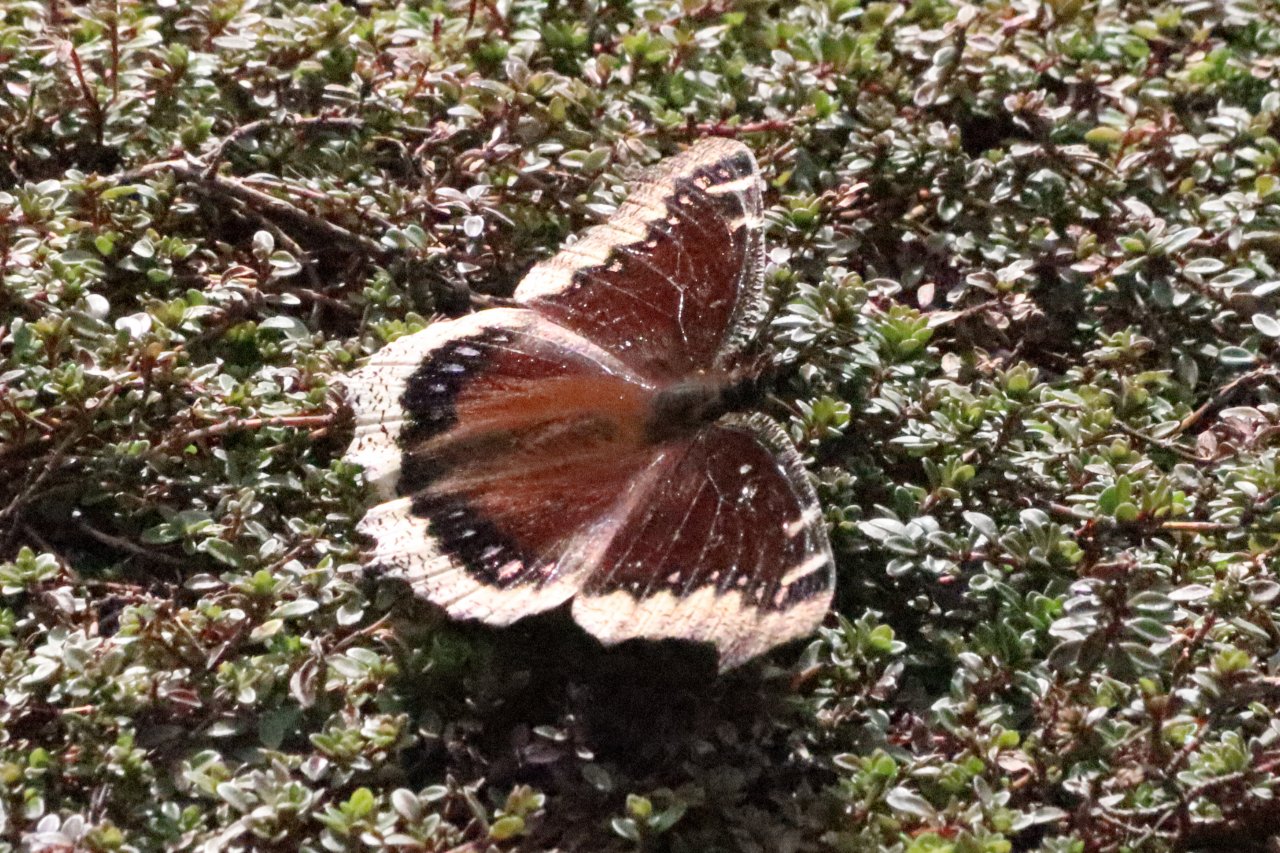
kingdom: Animalia
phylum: Arthropoda
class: Insecta
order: Lepidoptera
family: Nymphalidae
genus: Nymphalis
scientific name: Nymphalis antiopa
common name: Mourning Cloak
